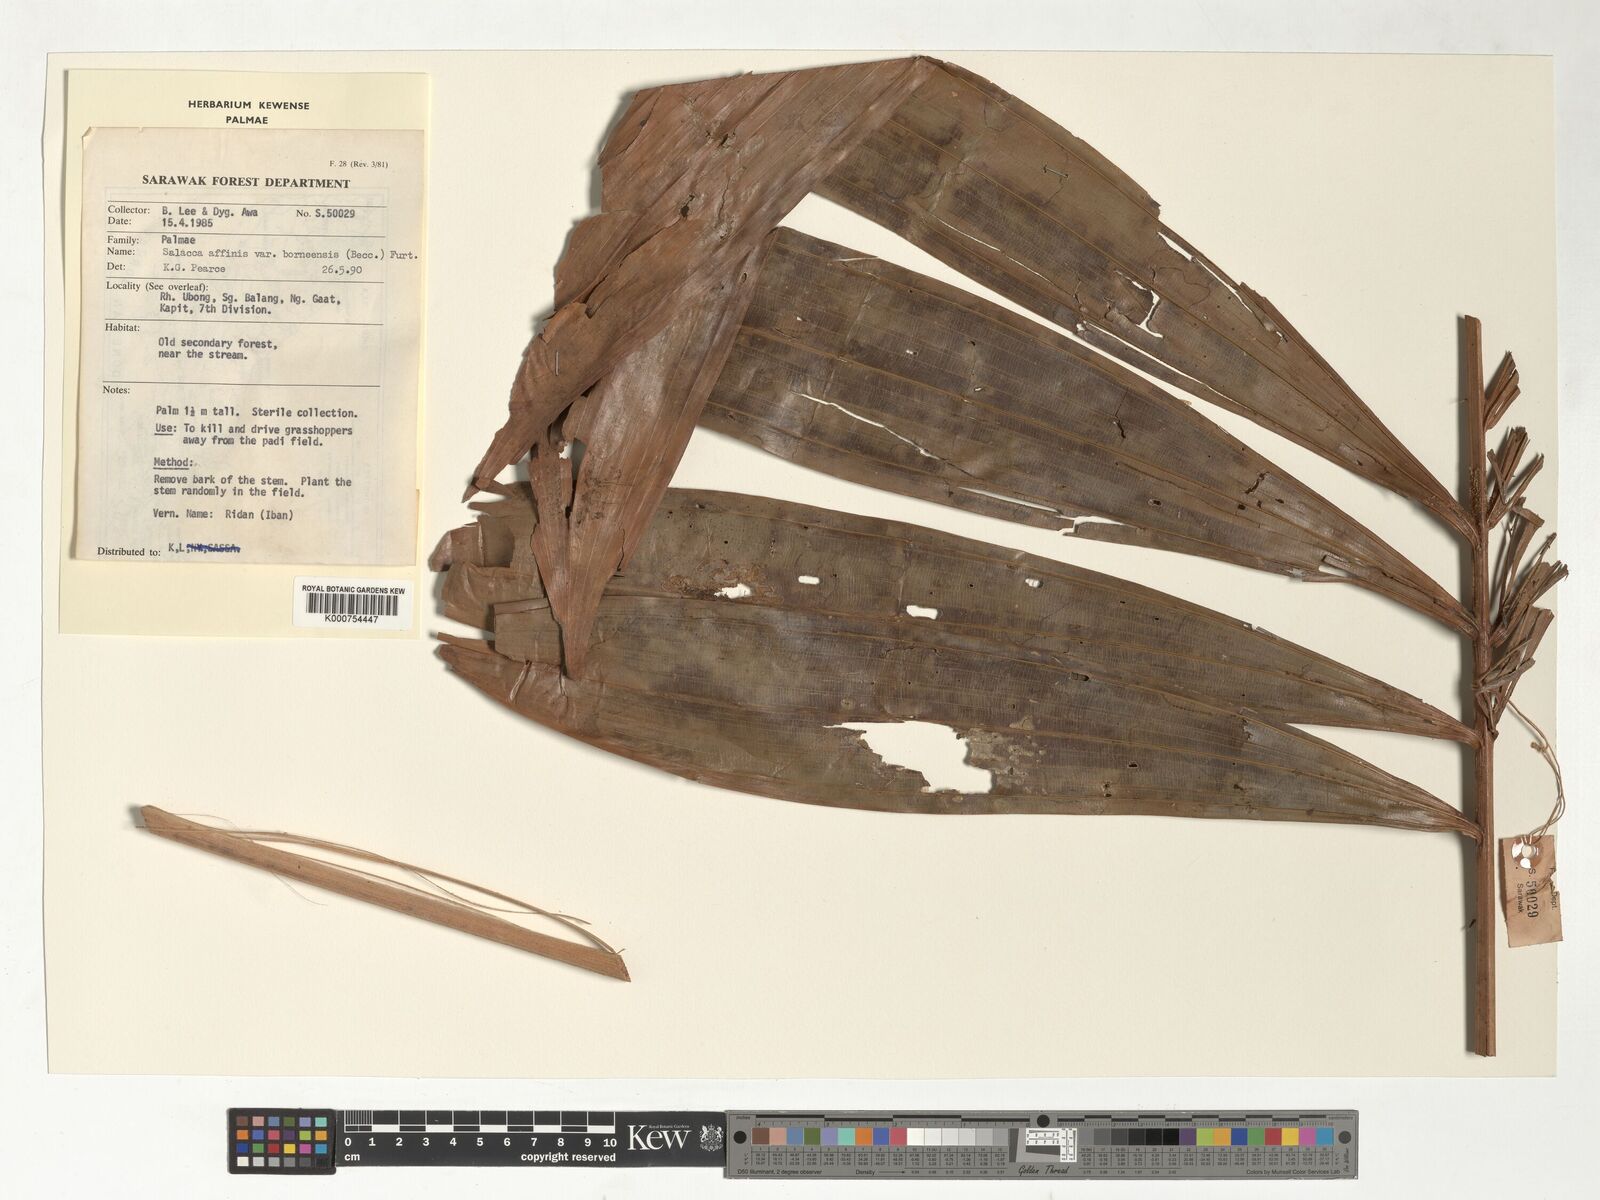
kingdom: Plantae
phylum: Tracheophyta
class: Liliopsida
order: Arecales
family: Arecaceae
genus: Salacca
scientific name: Salacca affinis
